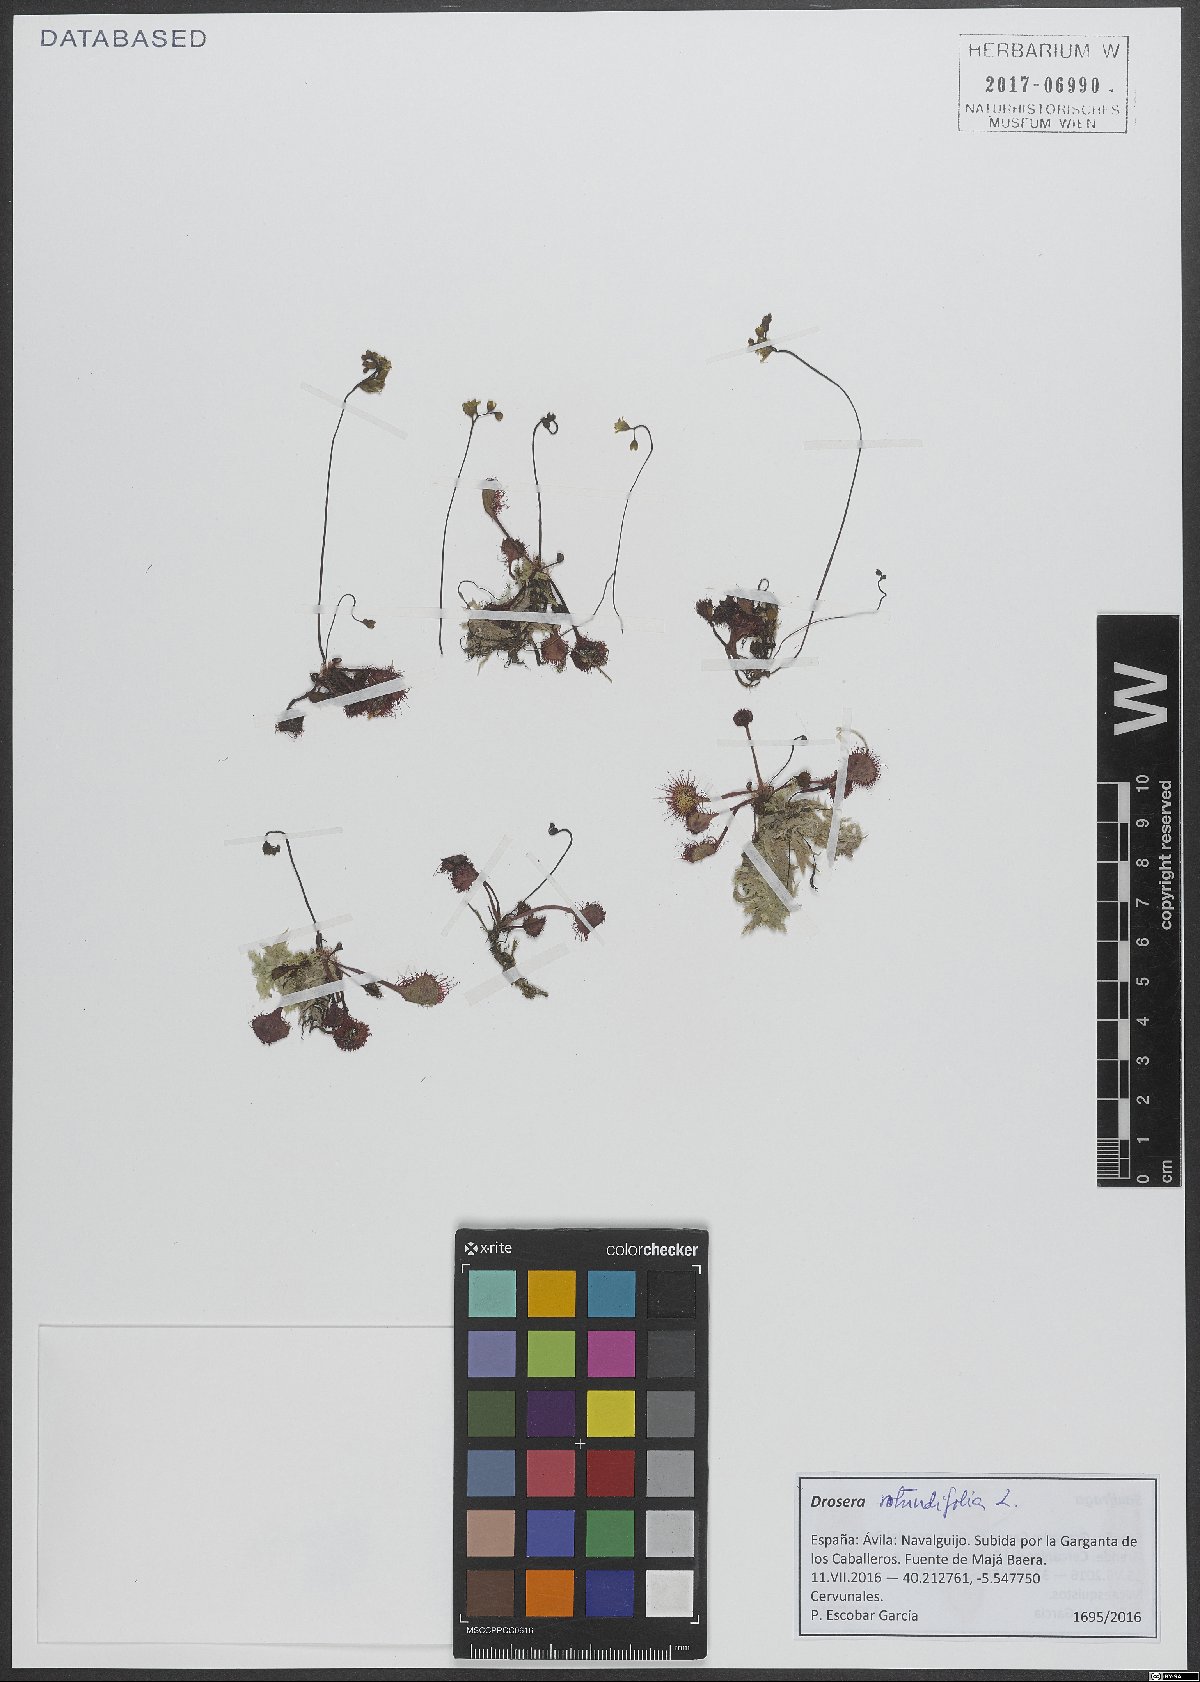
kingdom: Plantae
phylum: Tracheophyta
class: Magnoliopsida
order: Caryophyllales
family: Droseraceae
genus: Drosera
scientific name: Drosera rotundifolia
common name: Round-leaved sundew
